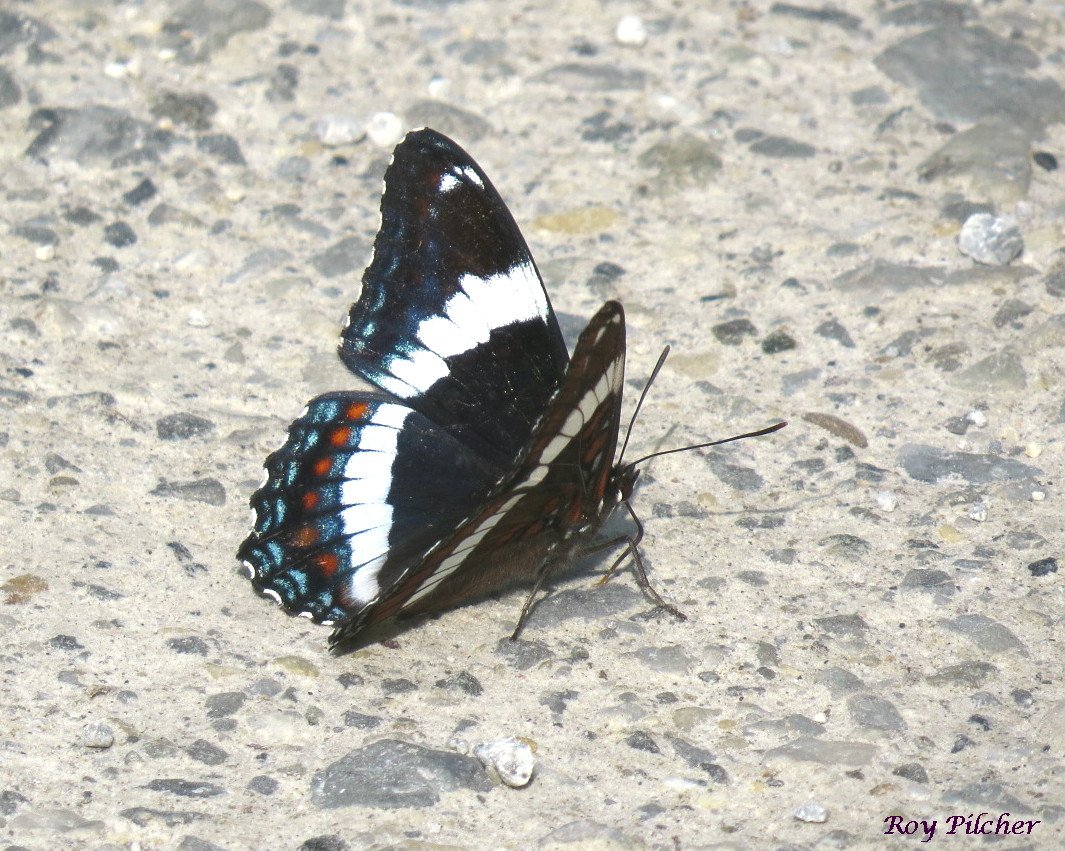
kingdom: Animalia
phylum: Arthropoda
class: Insecta
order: Lepidoptera
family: Nymphalidae
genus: Limenitis
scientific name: Limenitis arthemis
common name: Red-spotted Admiral
